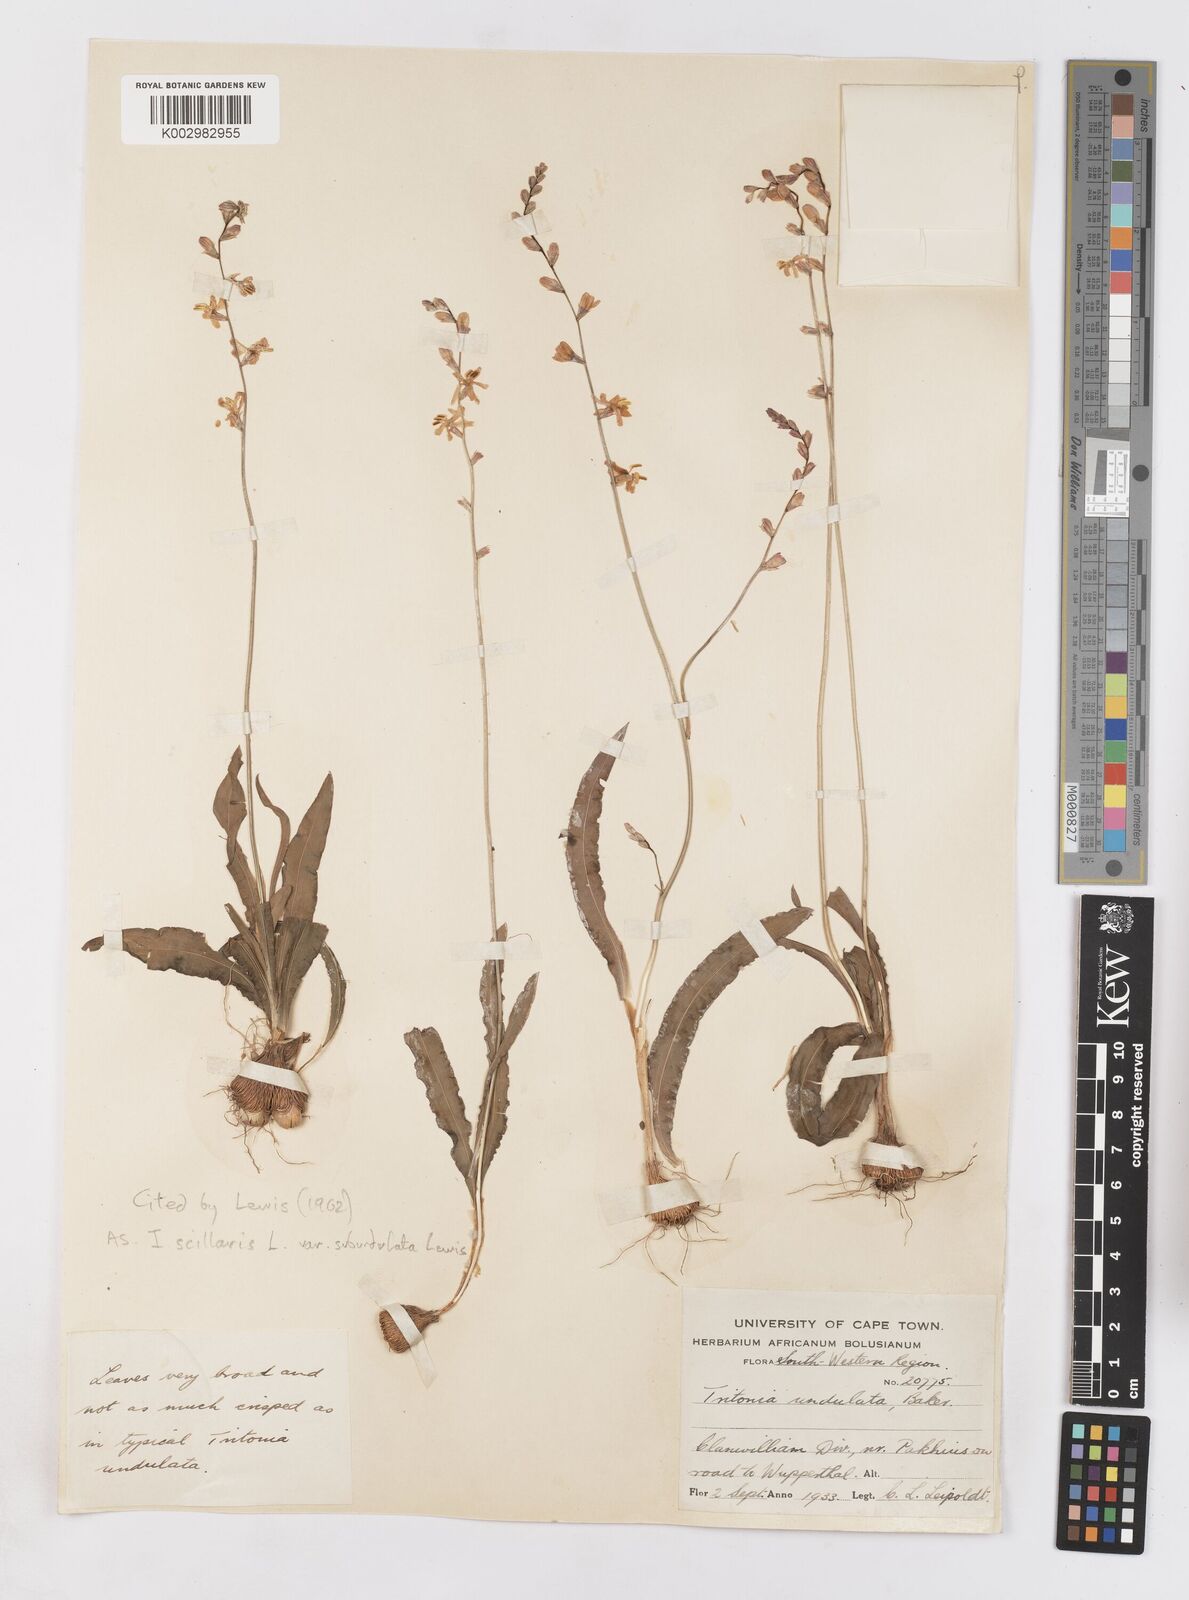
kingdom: Plantae
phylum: Tracheophyta
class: Liliopsida
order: Asparagales
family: Iridaceae
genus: Ixia
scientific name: Ixia scillaris
